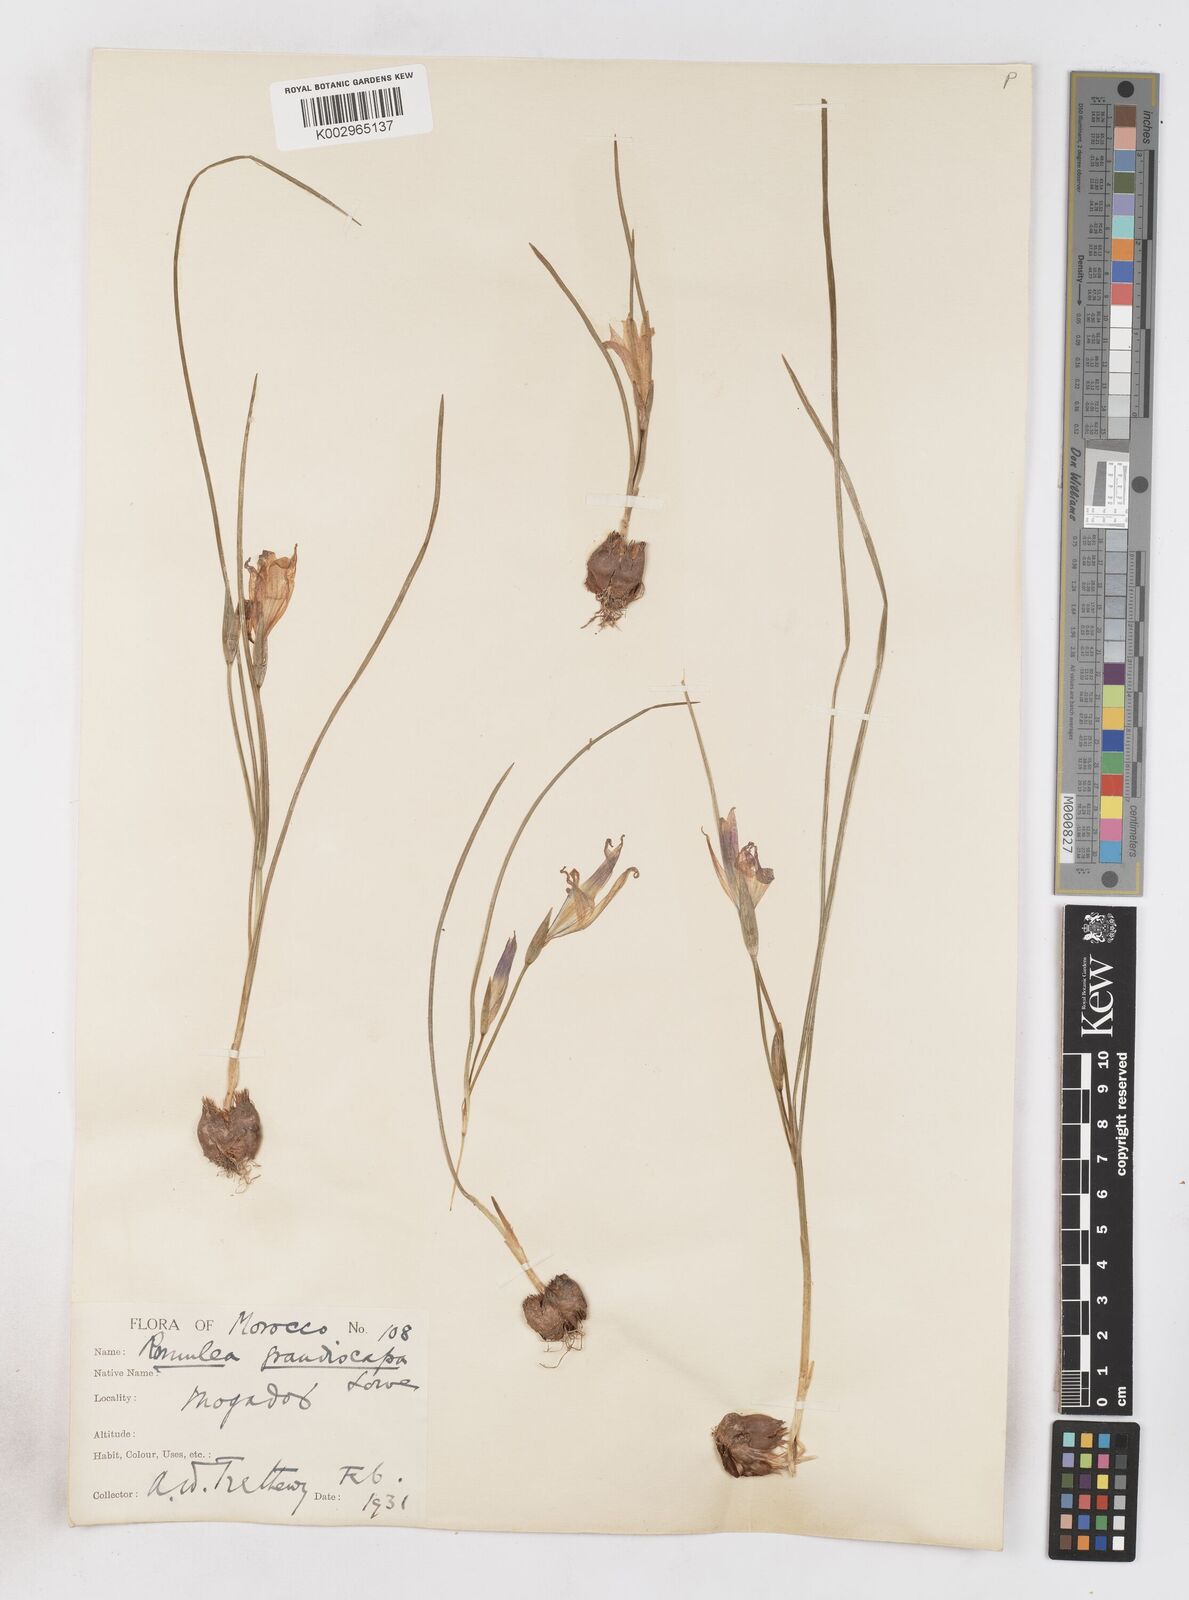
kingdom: Plantae
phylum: Tracheophyta
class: Liliopsida
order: Asparagales
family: Iridaceae
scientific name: Iridaceae
